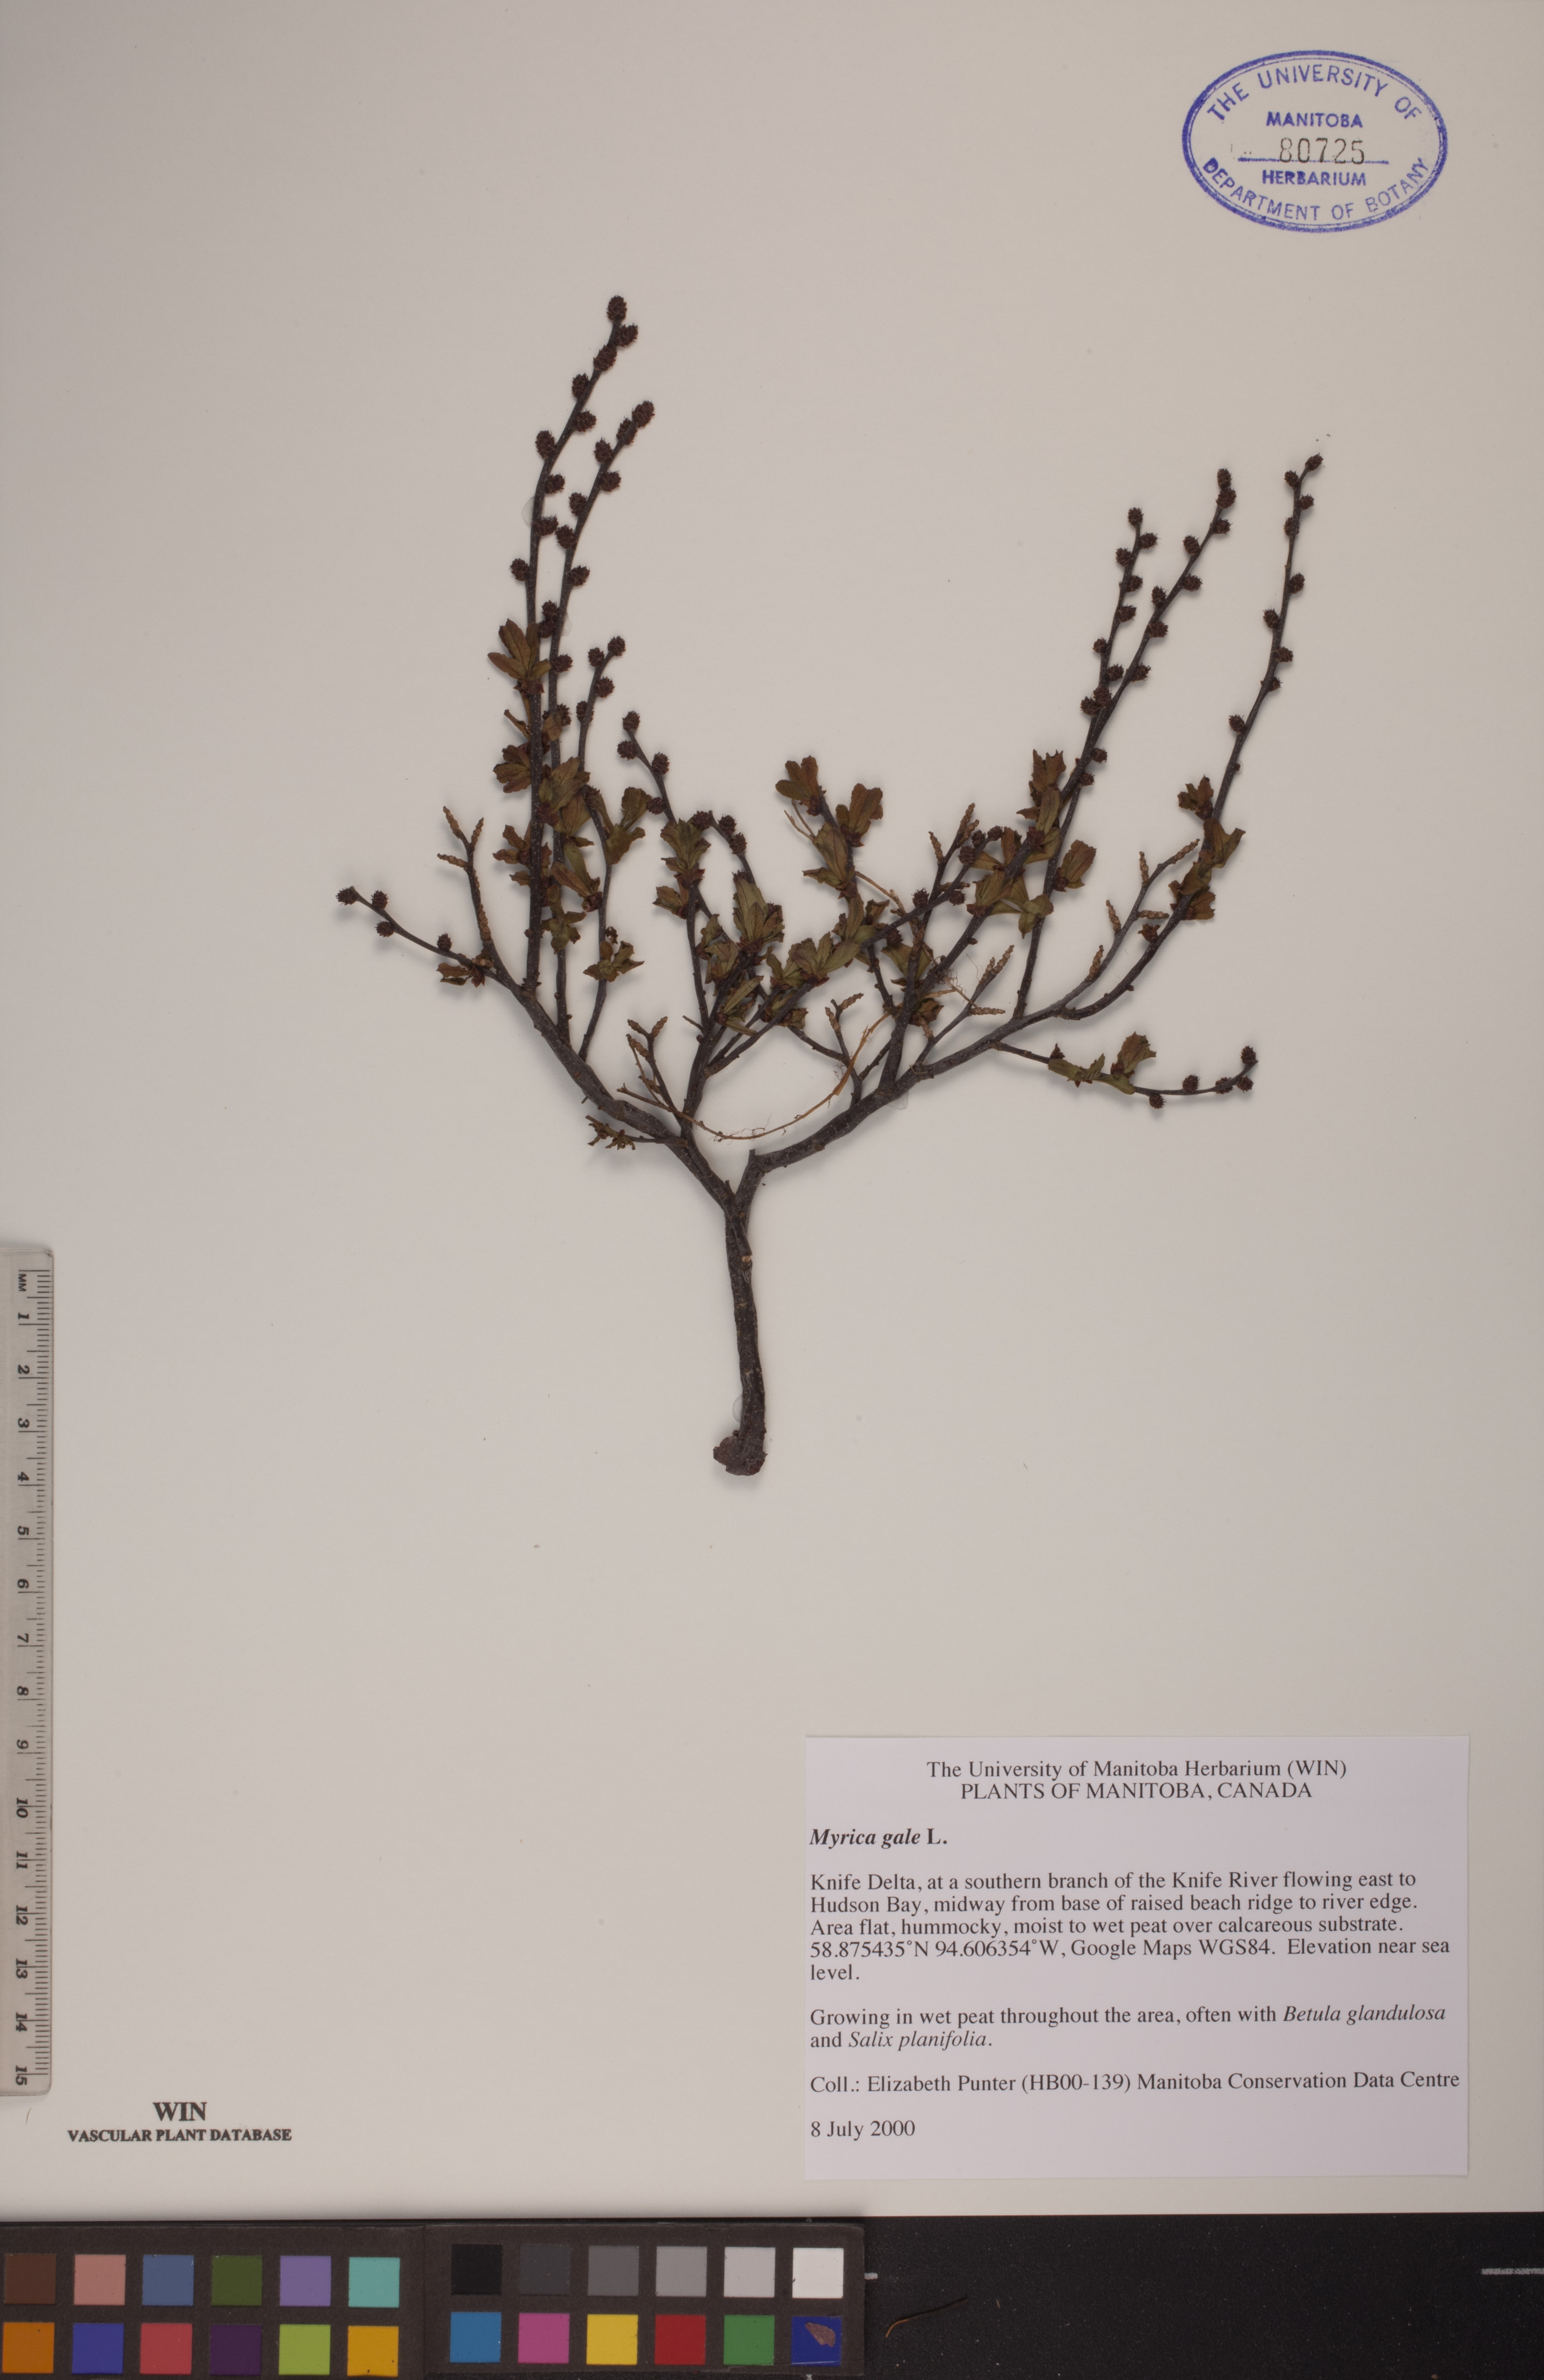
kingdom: Plantae
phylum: Tracheophyta
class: Magnoliopsida
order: Fagales
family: Myricaceae
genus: Myrica
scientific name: Myrica gale
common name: Sweet gale
